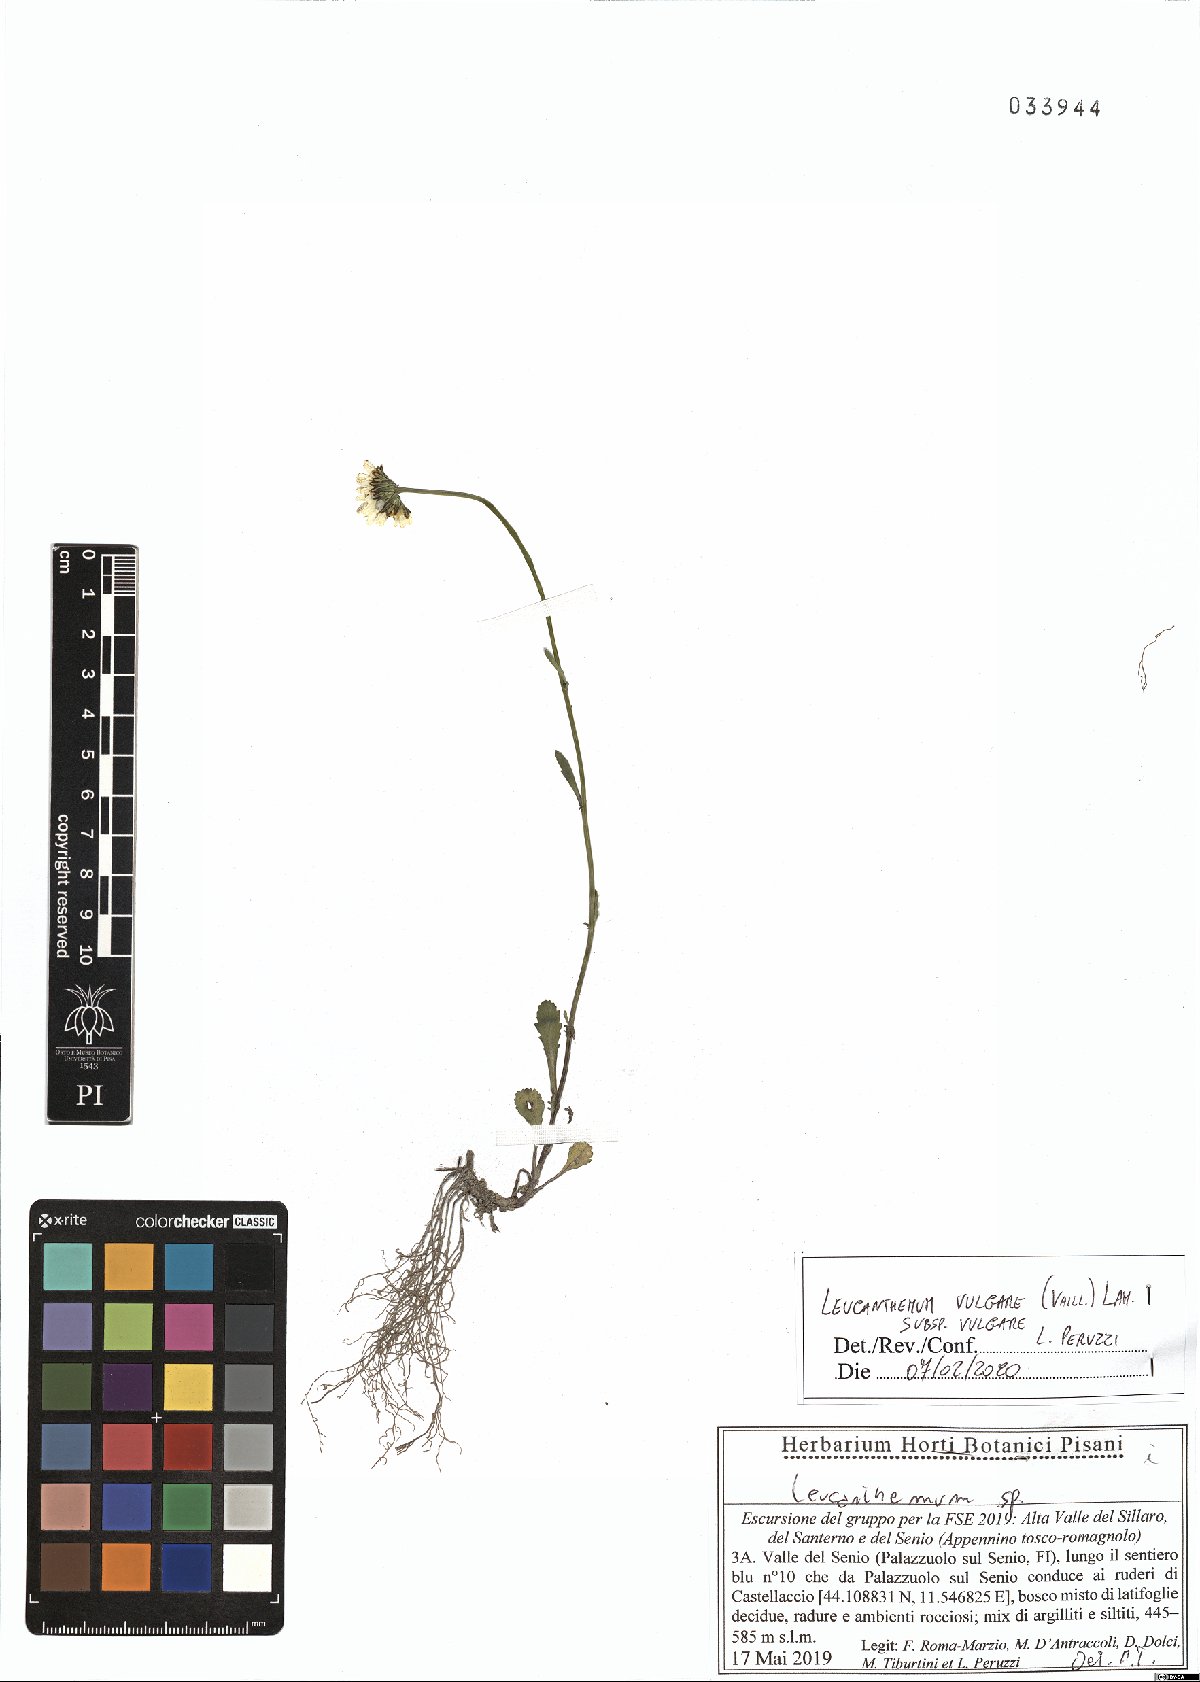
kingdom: Plantae
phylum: Tracheophyta
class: Magnoliopsida
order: Asterales
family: Asteraceae
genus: Leucanthemum
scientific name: Leucanthemum vulgare
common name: Oxeye daisy
